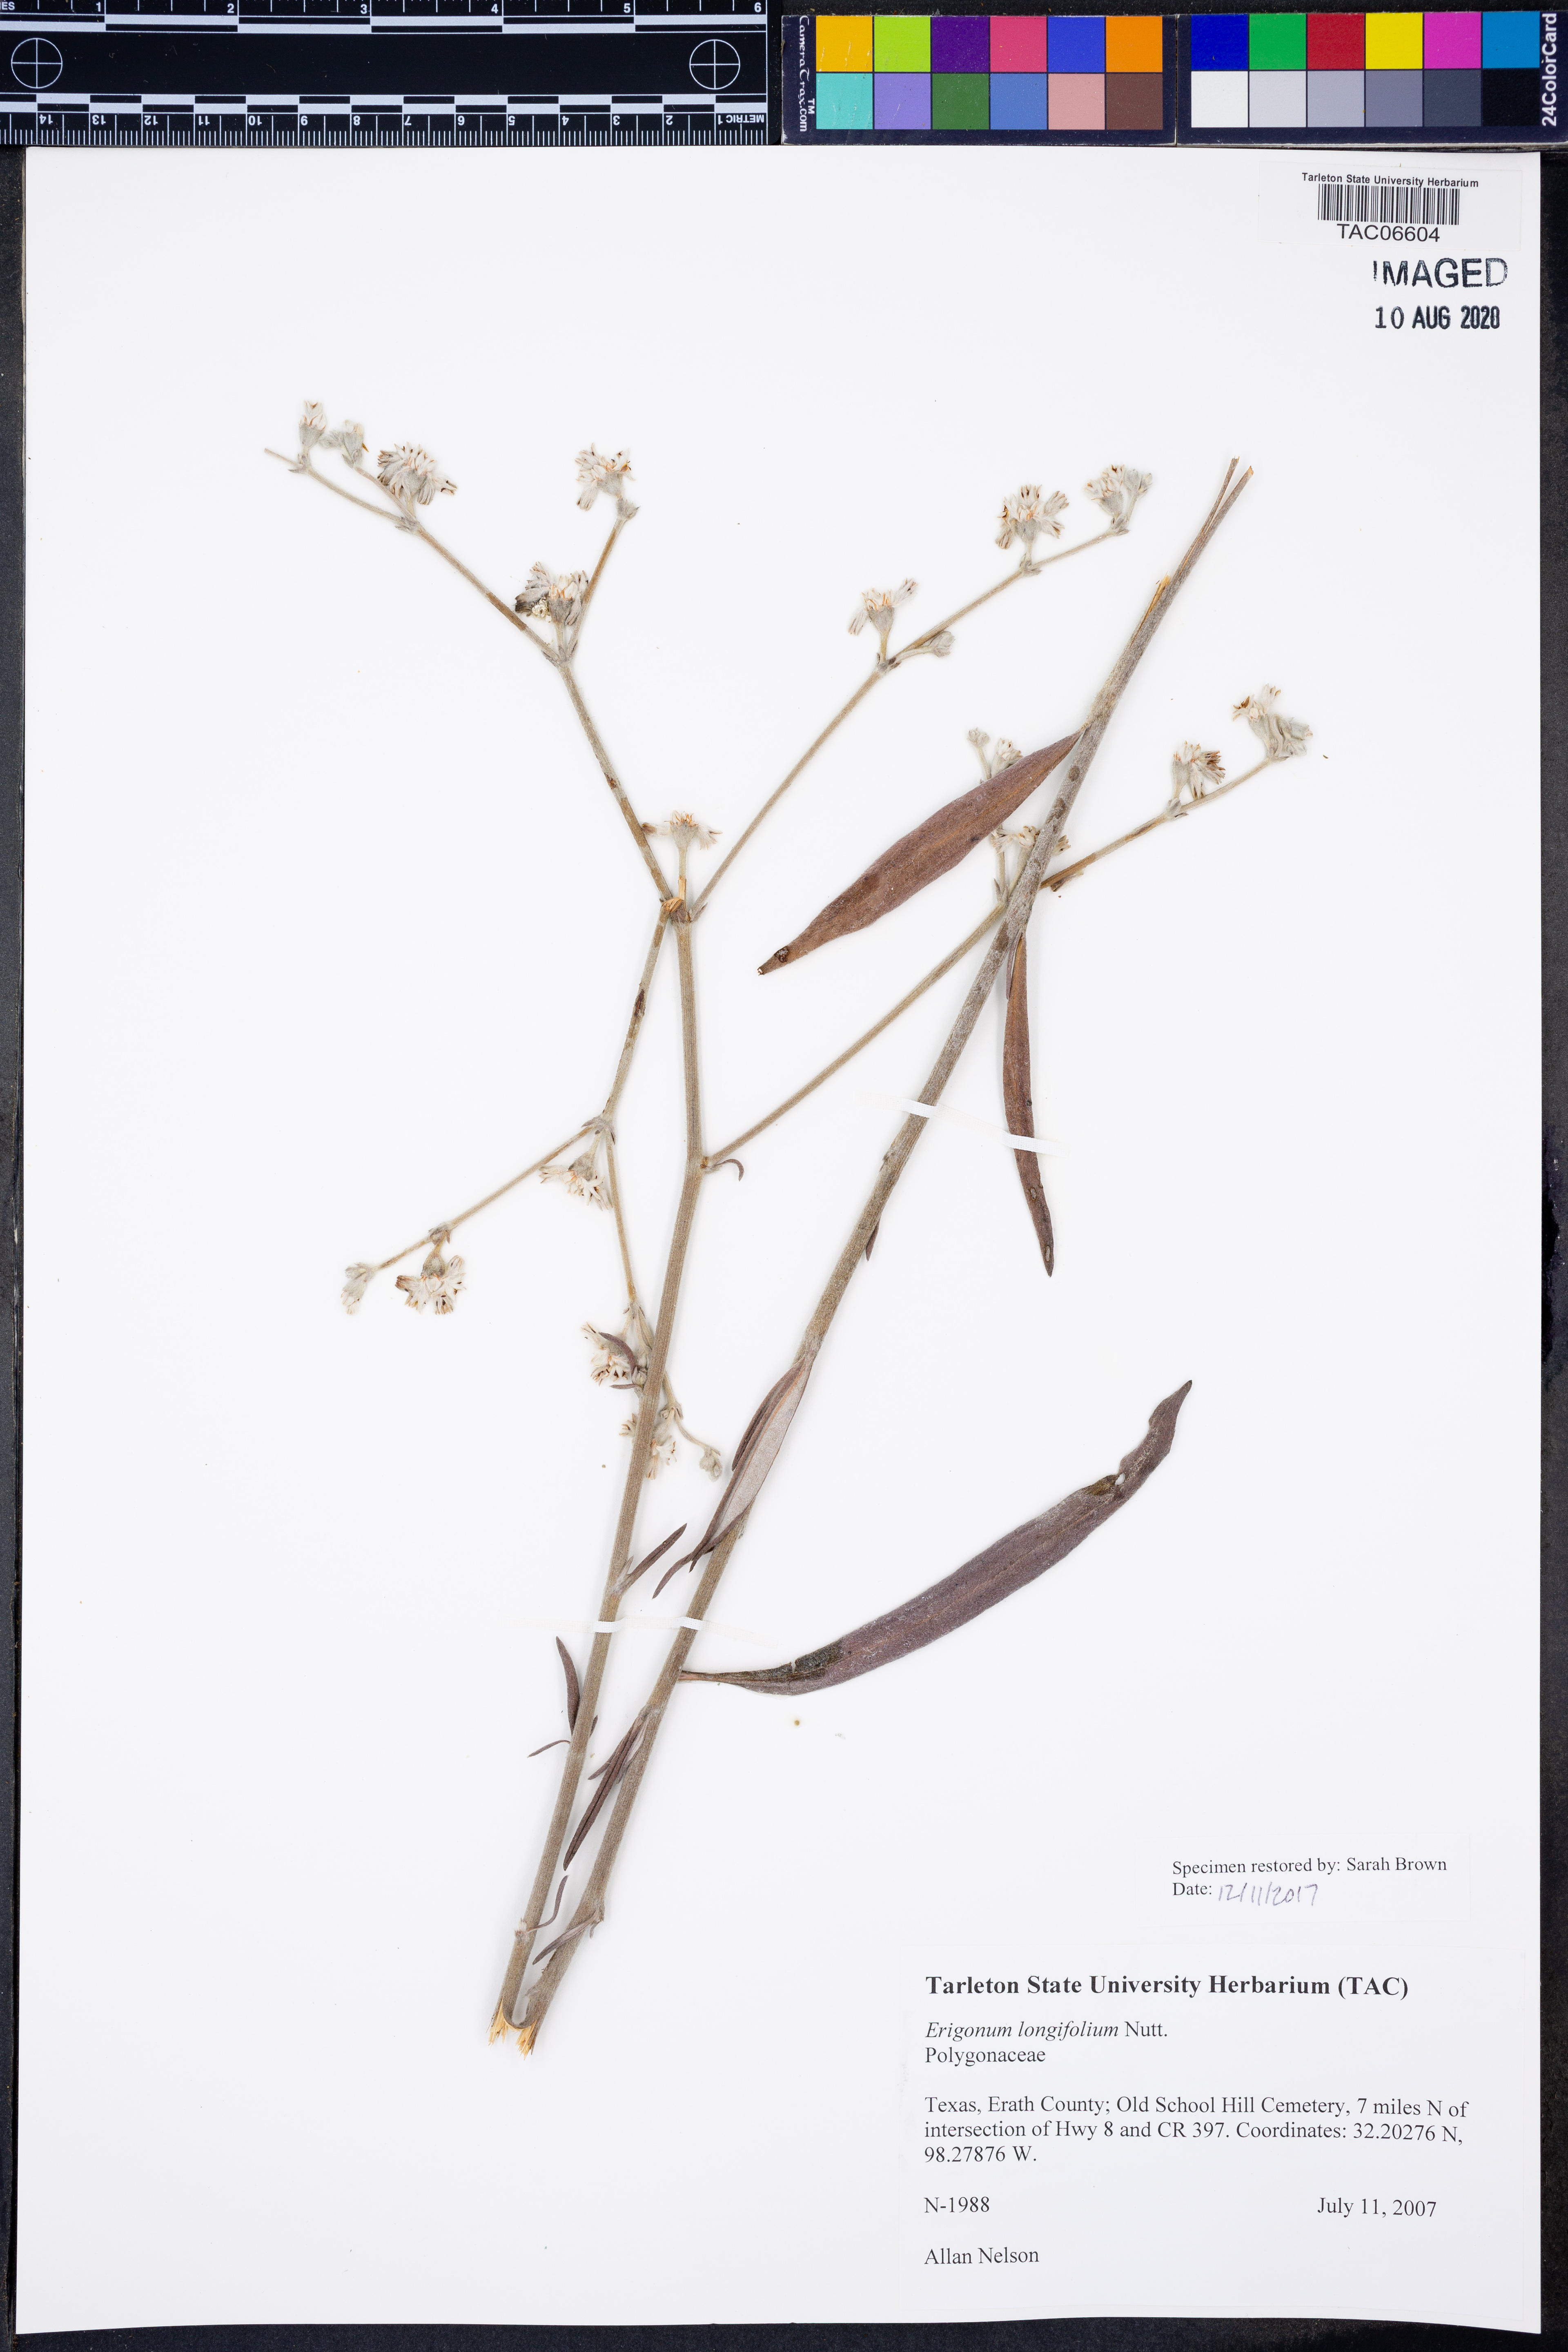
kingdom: Plantae
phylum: Tracheophyta
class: Magnoliopsida
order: Caryophyllales
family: Polygonaceae
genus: Eriogonum
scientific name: Eriogonum longifolium
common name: Longleaf wild buckwheat
